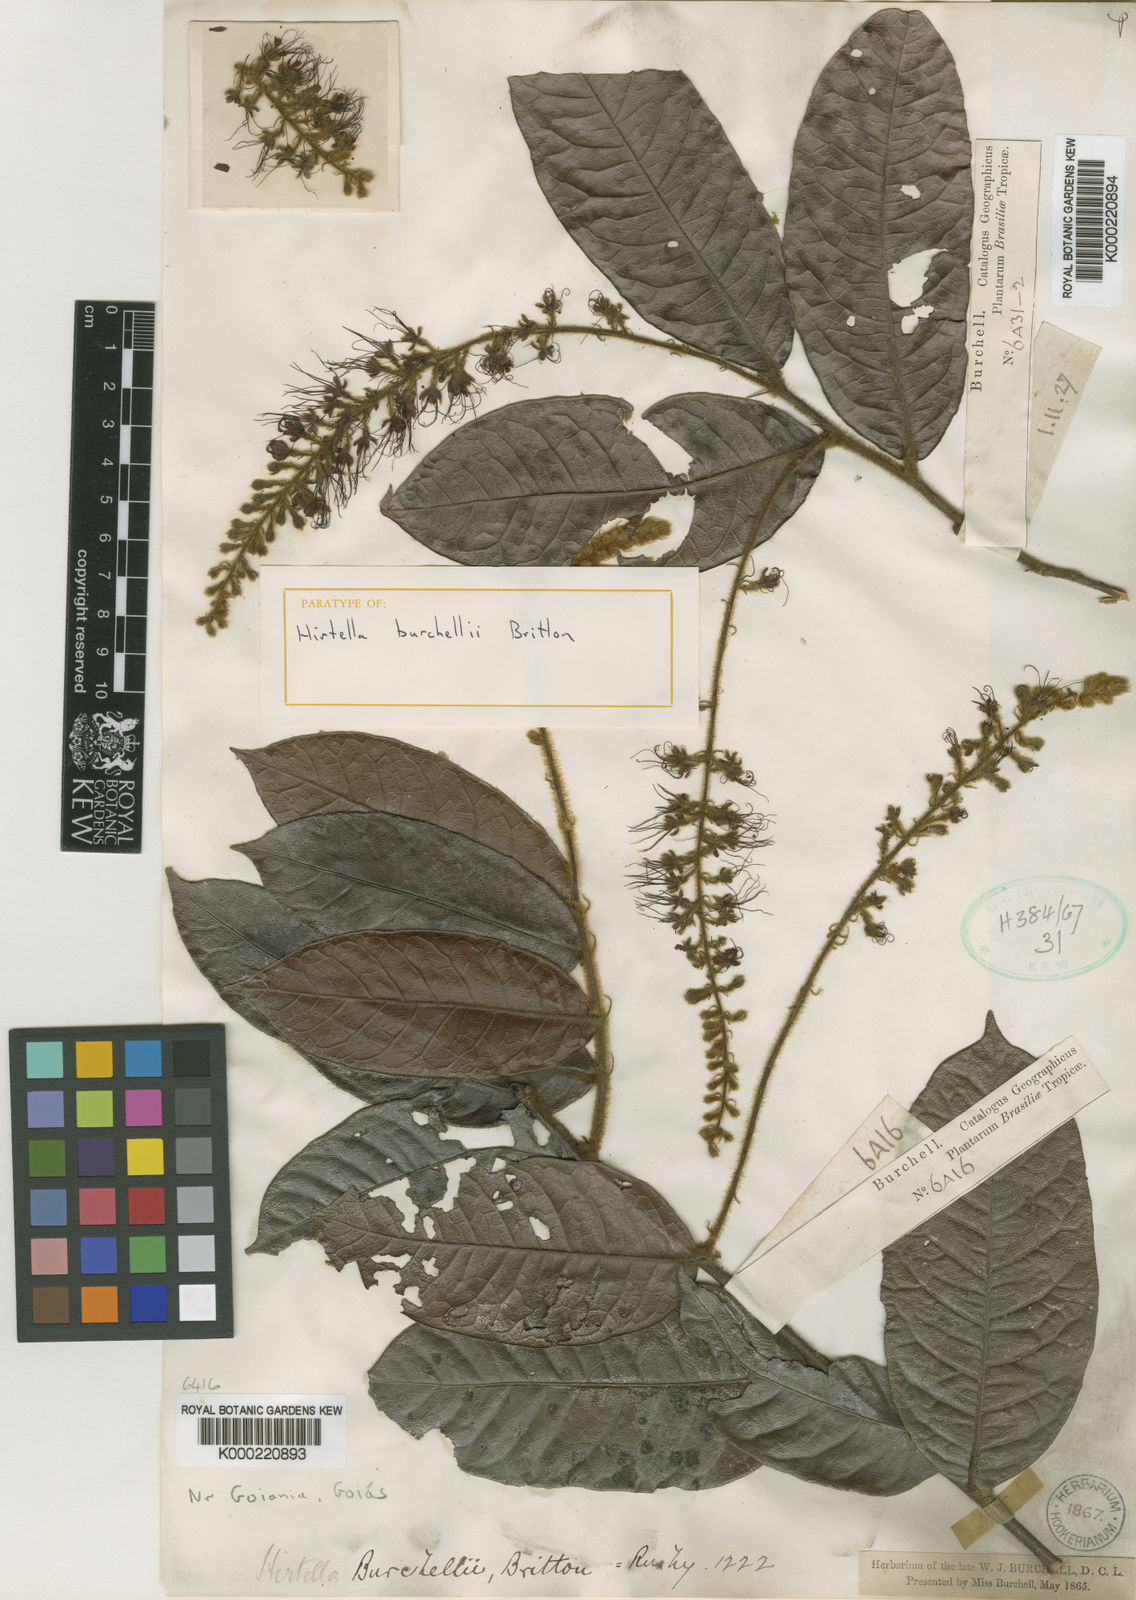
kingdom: Plantae
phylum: Tracheophyta
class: Magnoliopsida
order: Malpighiales
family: Chrysobalanaceae
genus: Hirtella
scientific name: Hirtella burchellii
